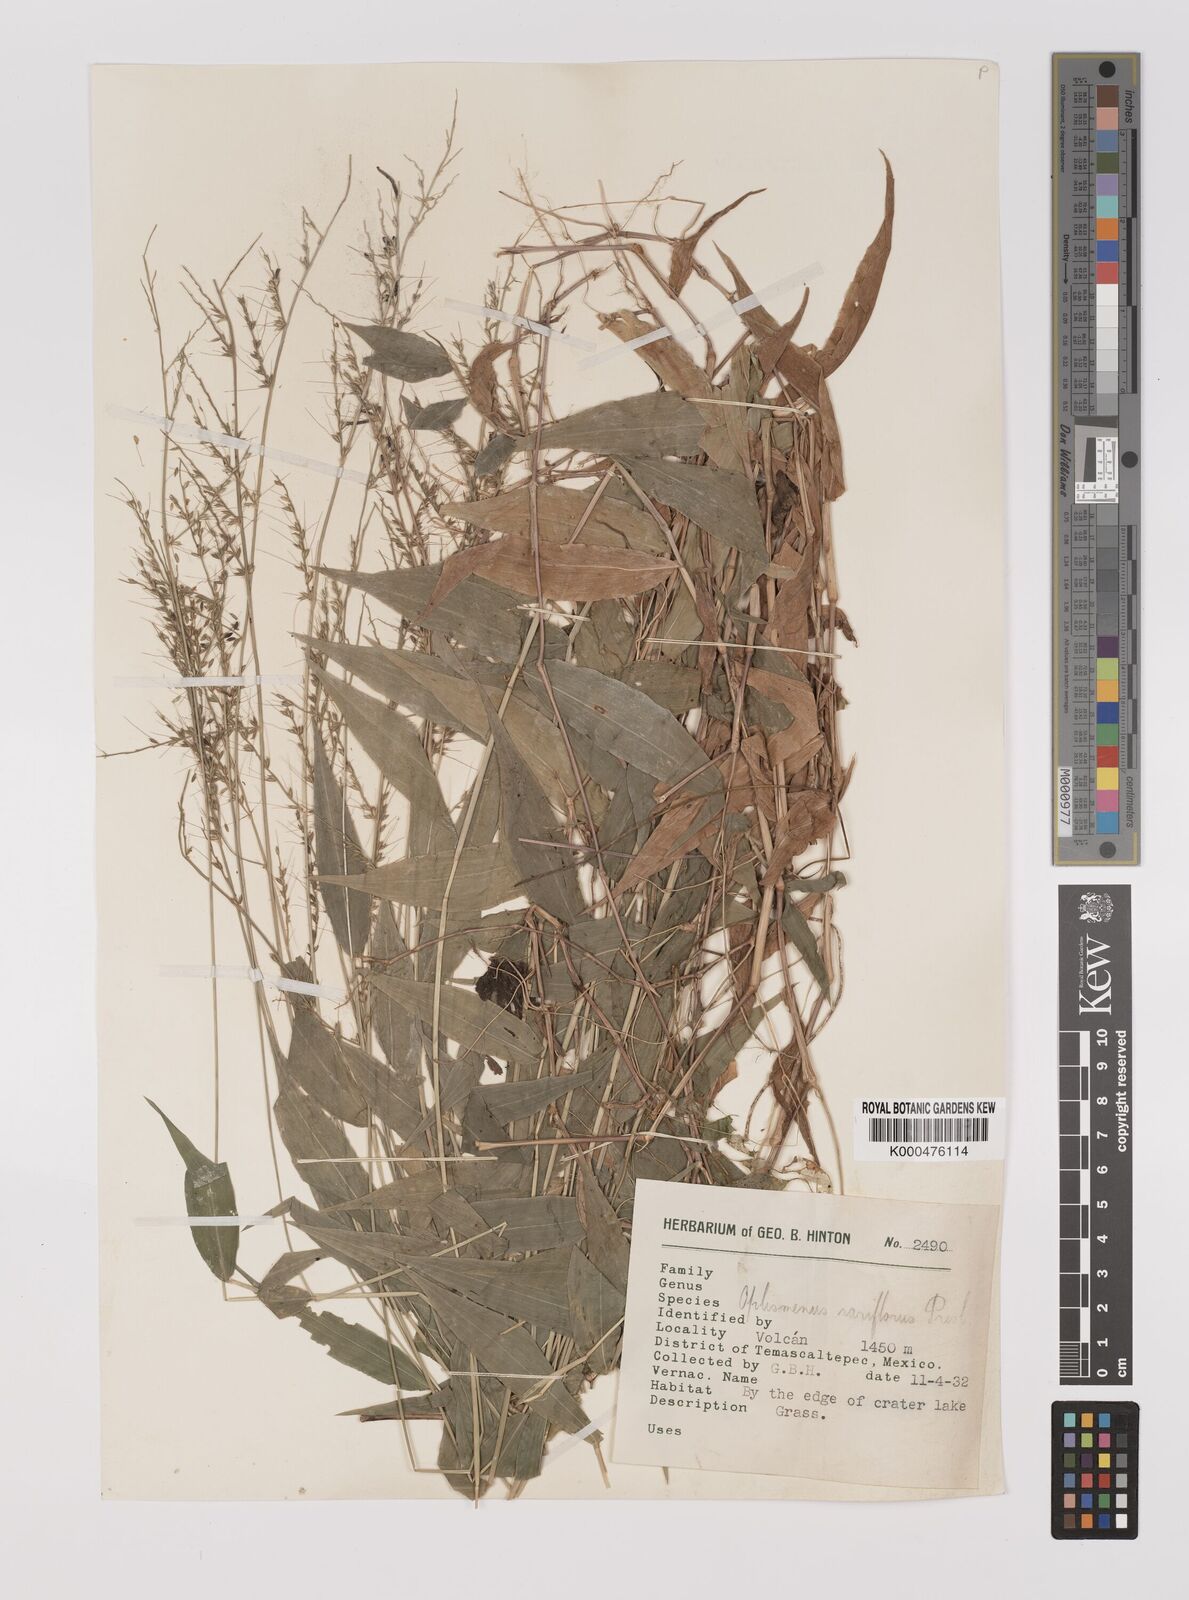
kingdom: Plantae
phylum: Tracheophyta
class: Liliopsida
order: Poales
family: Poaceae
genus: Oplismenus
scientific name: Oplismenus compositus
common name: Running mountain grass
